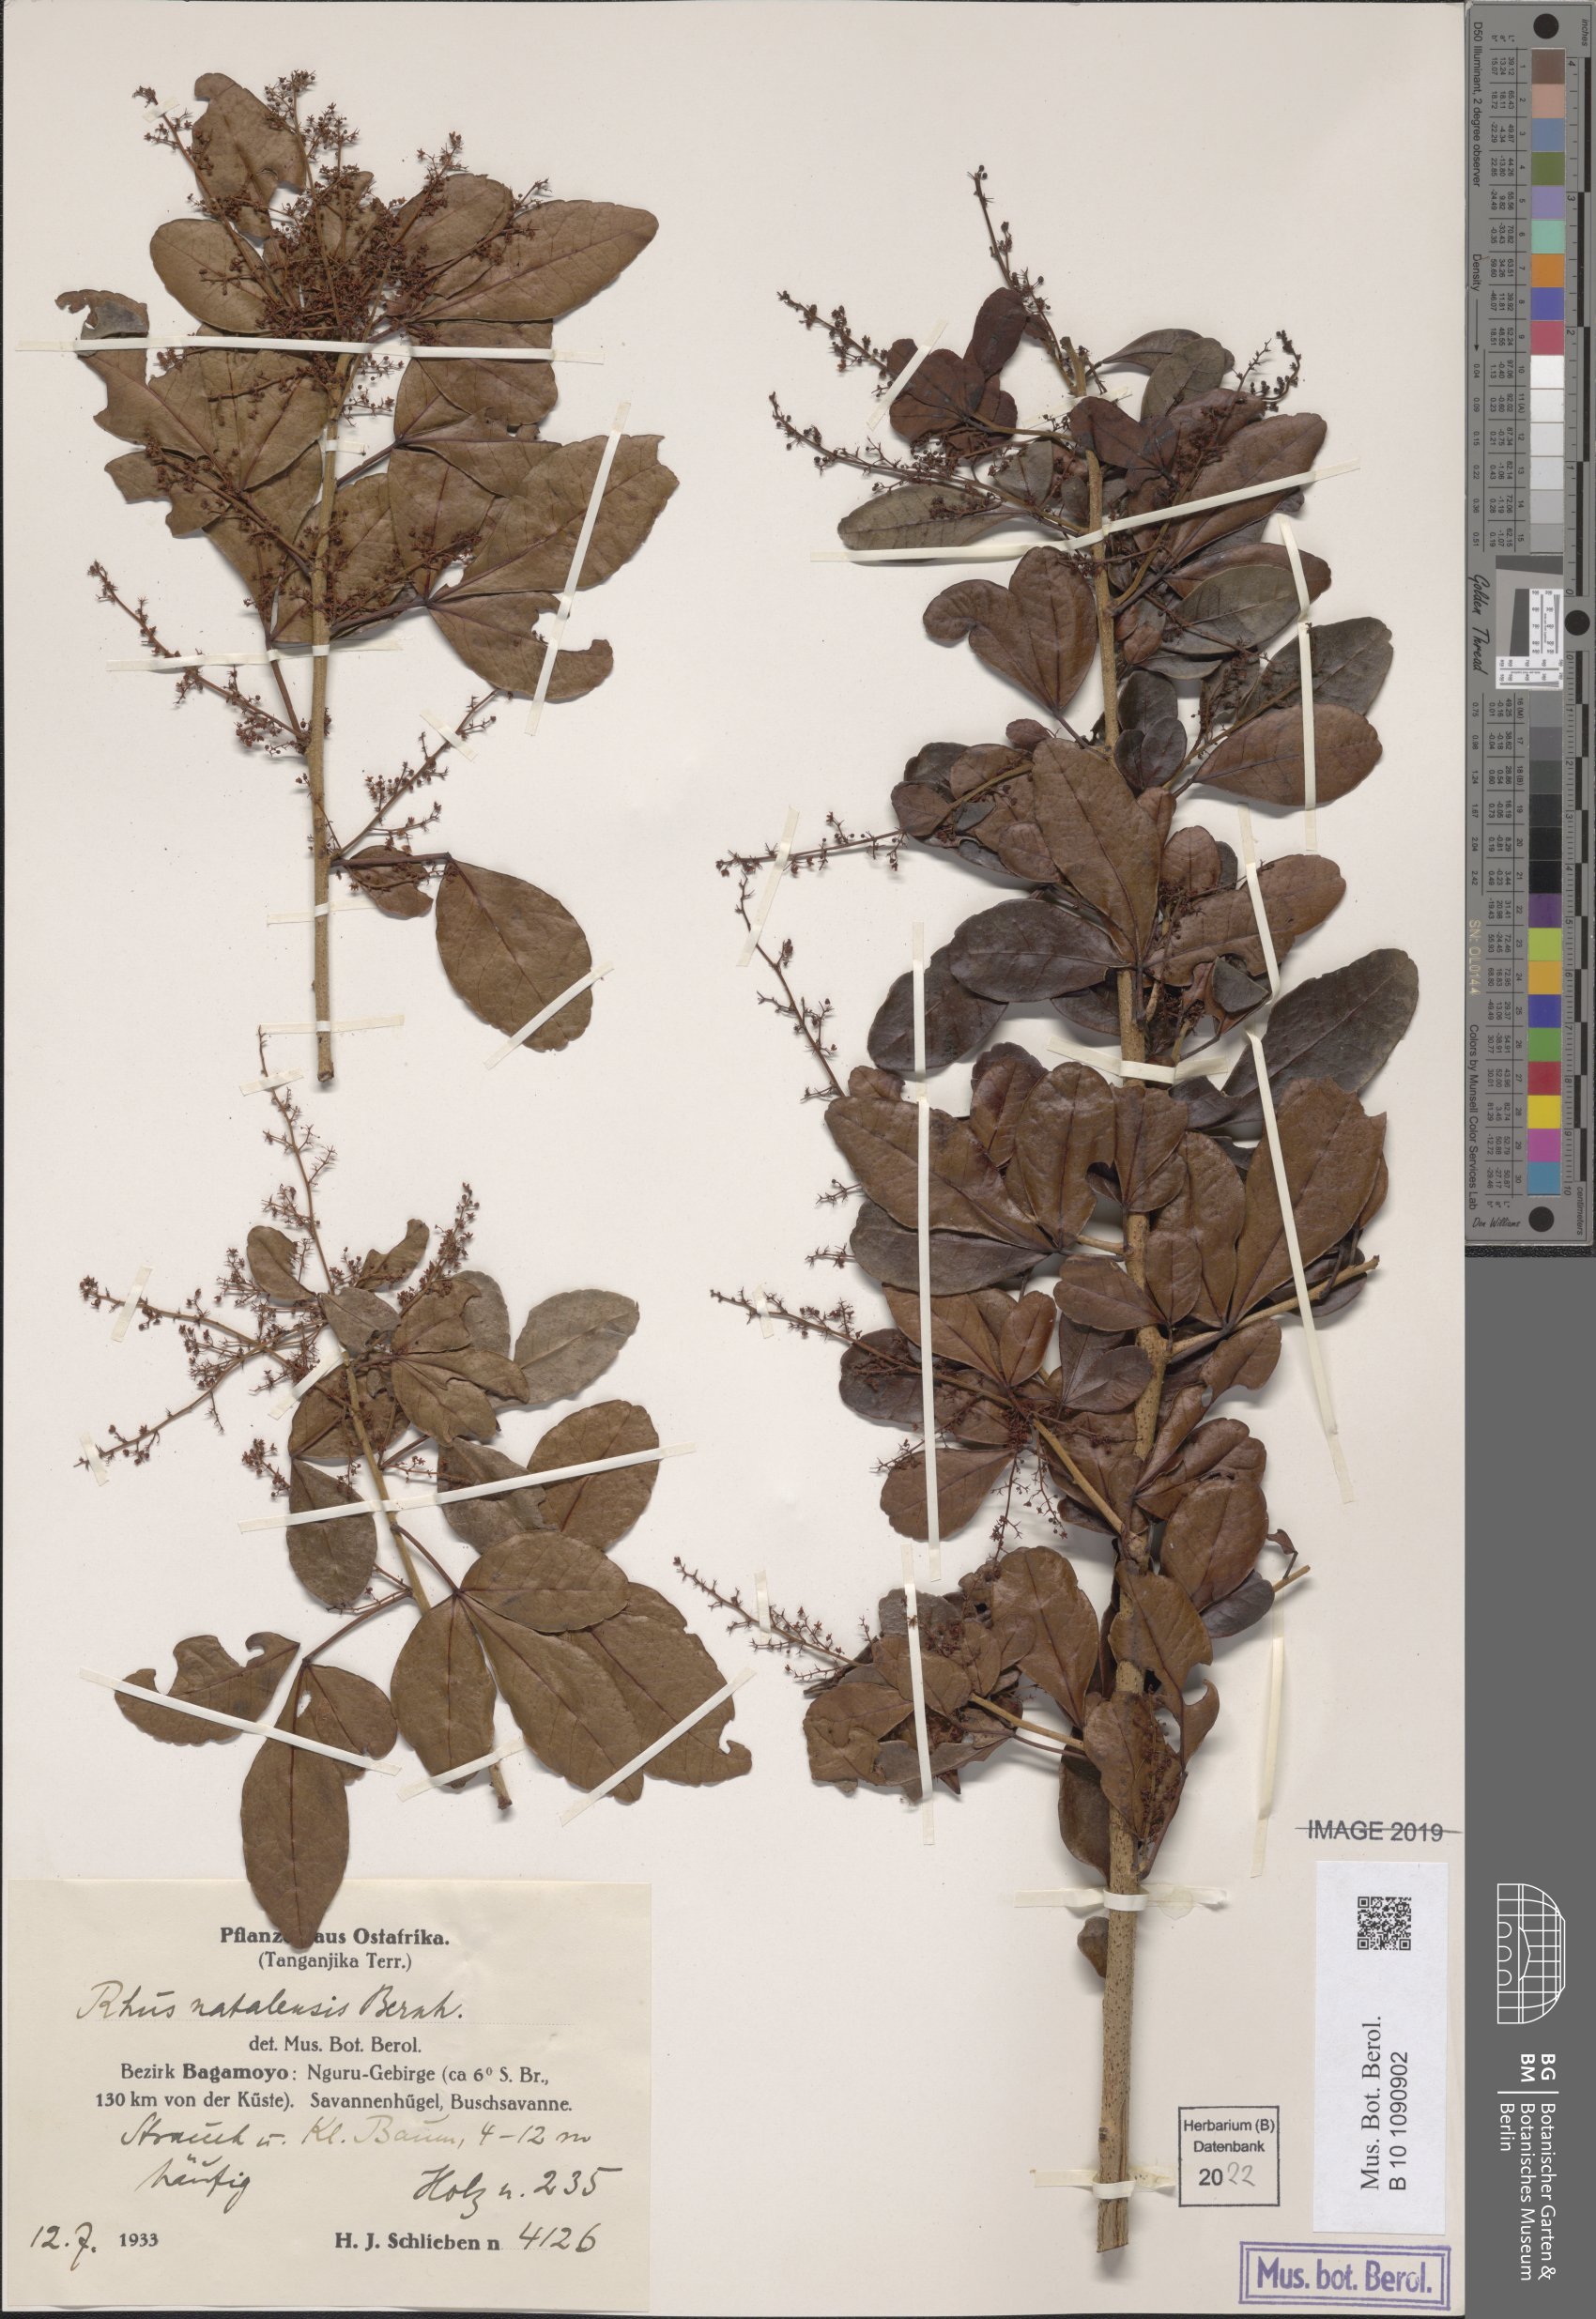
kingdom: Plantae
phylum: Tracheophyta
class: Magnoliopsida
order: Sapindales
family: Anacardiaceae
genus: Searsia
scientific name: Searsia natalensis
